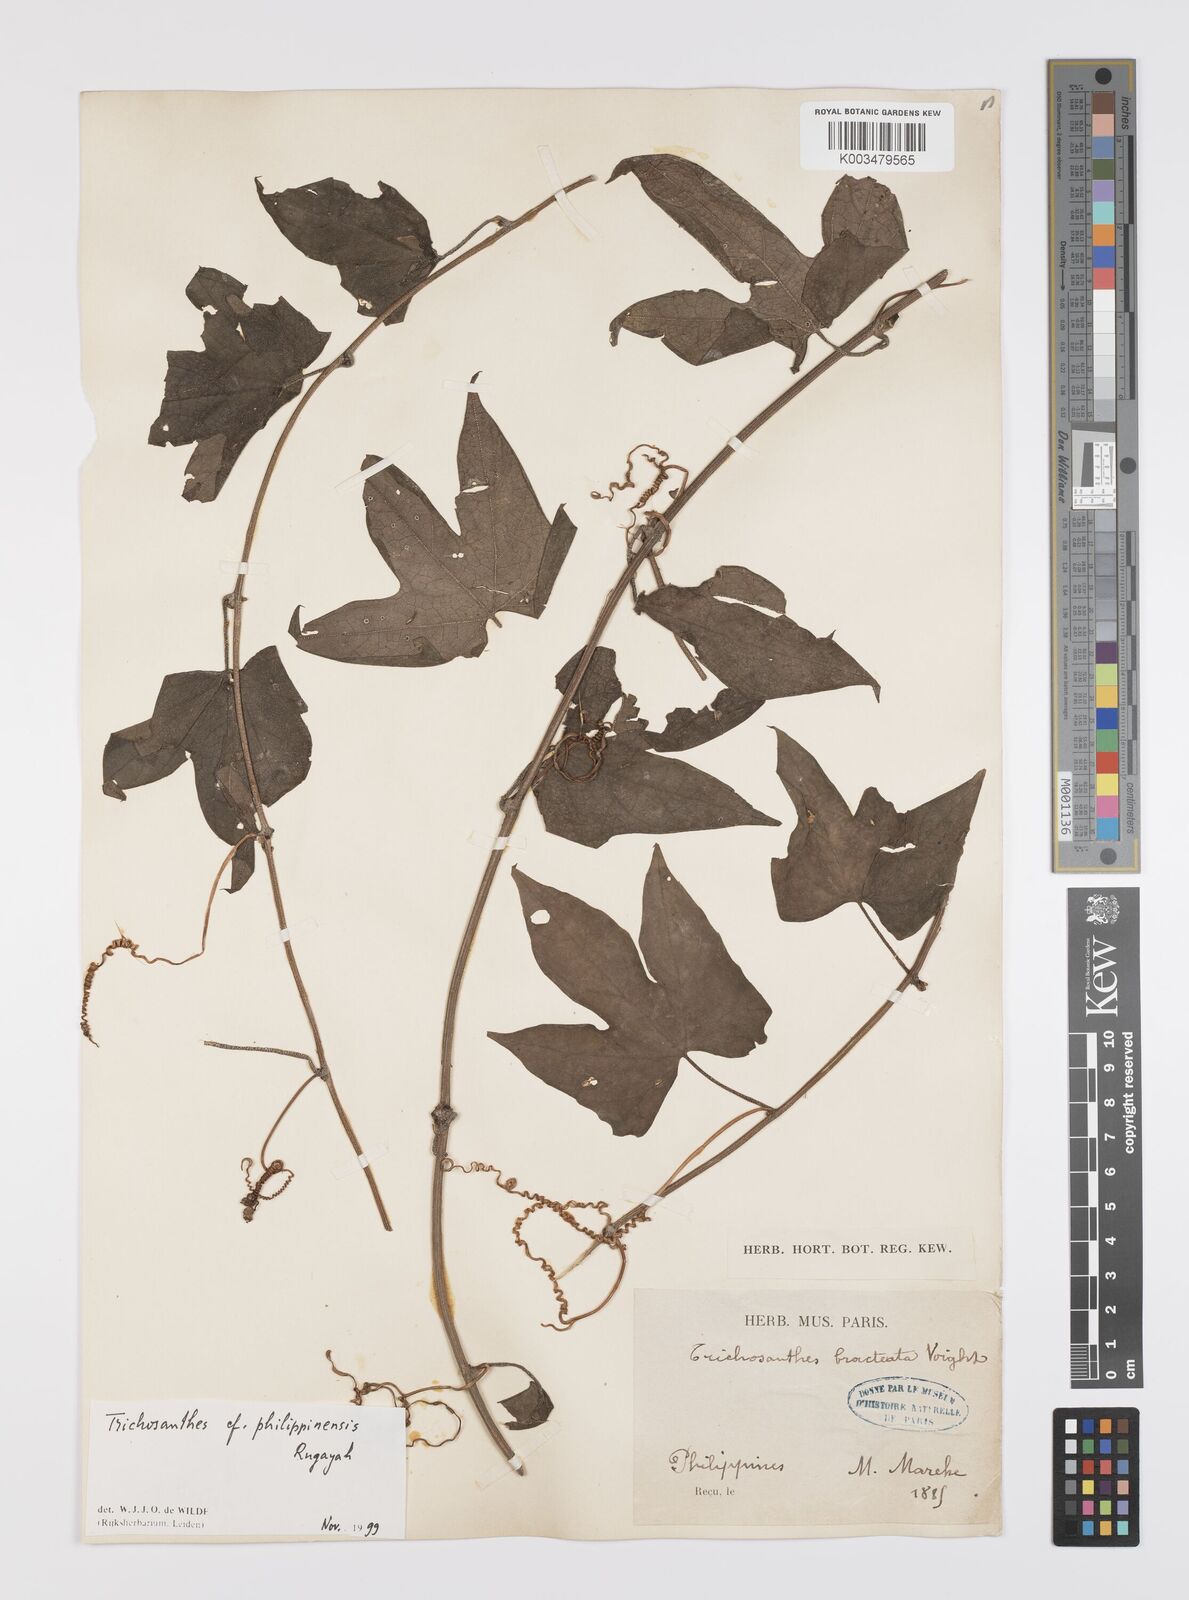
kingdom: Plantae
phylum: Tracheophyta
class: Magnoliopsida
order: Cucurbitales
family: Cucurbitaceae
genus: Trichosanthes
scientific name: Trichosanthes philippinensis
